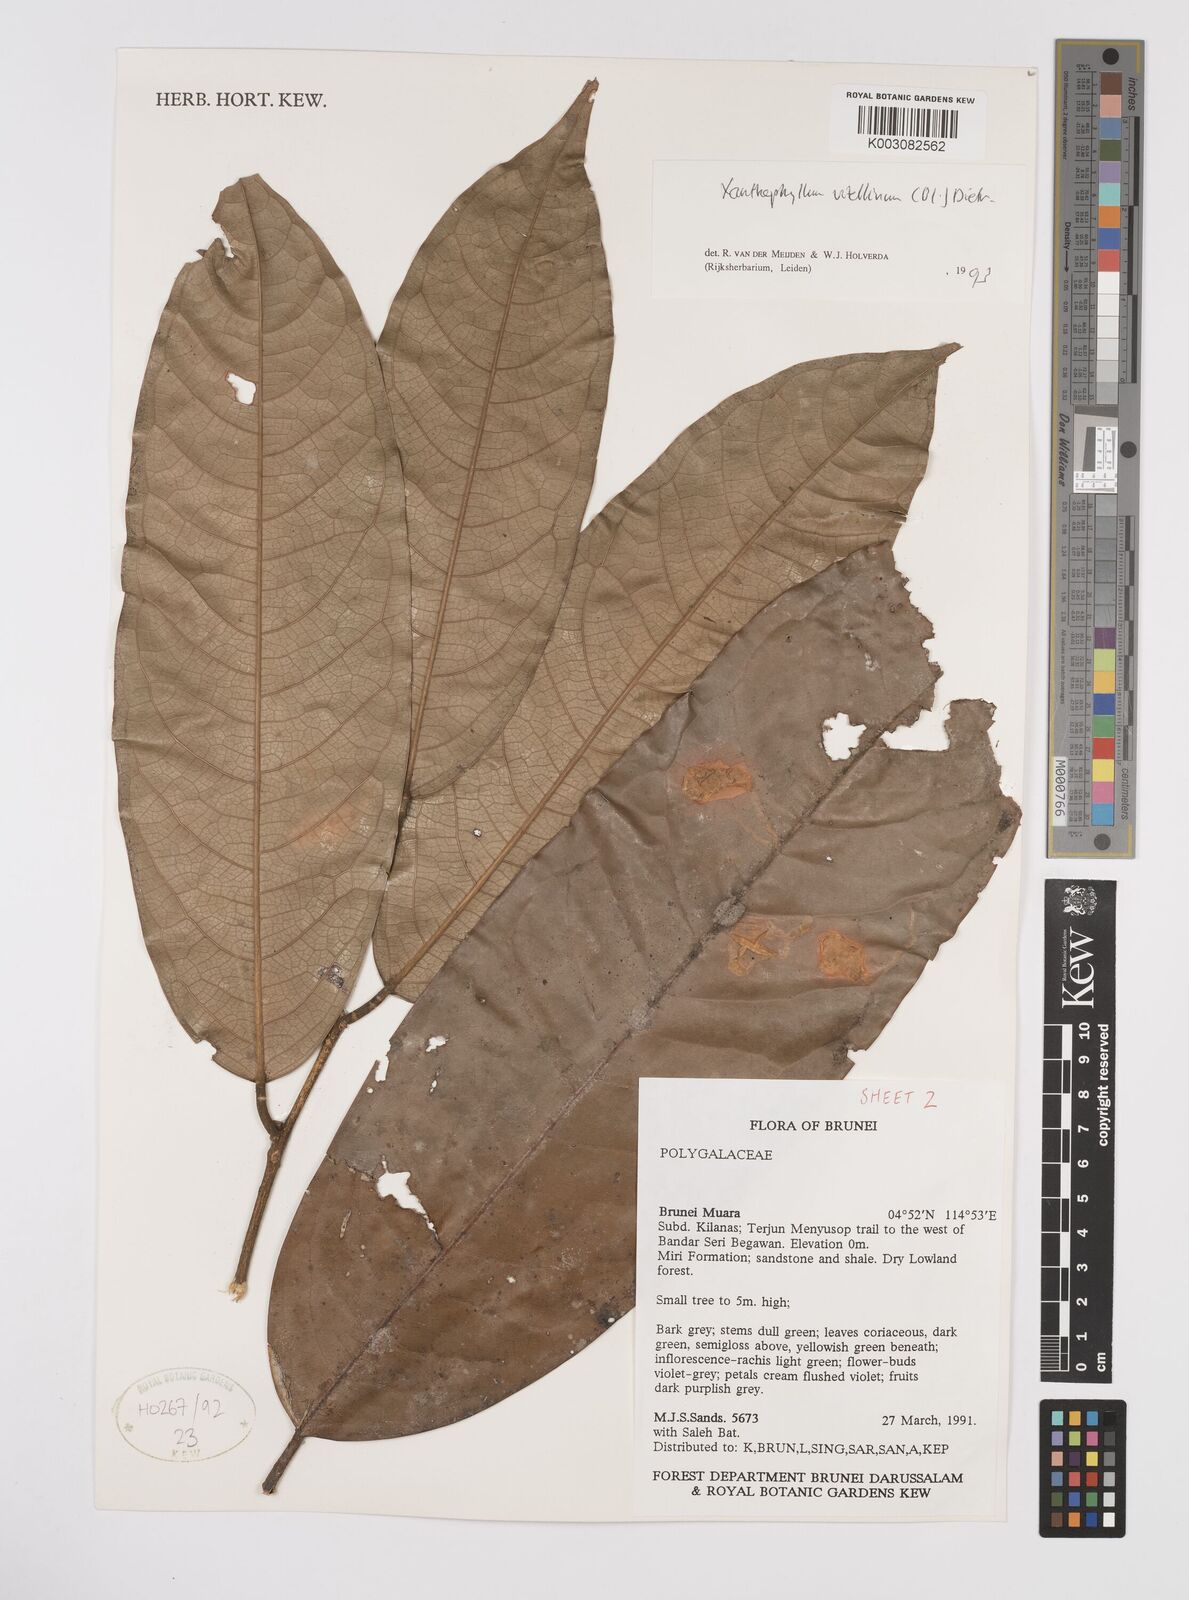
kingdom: Plantae
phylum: Tracheophyta
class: Magnoliopsida
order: Fabales
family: Polygalaceae
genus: Xanthophyllum
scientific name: Xanthophyllum vitellinum
